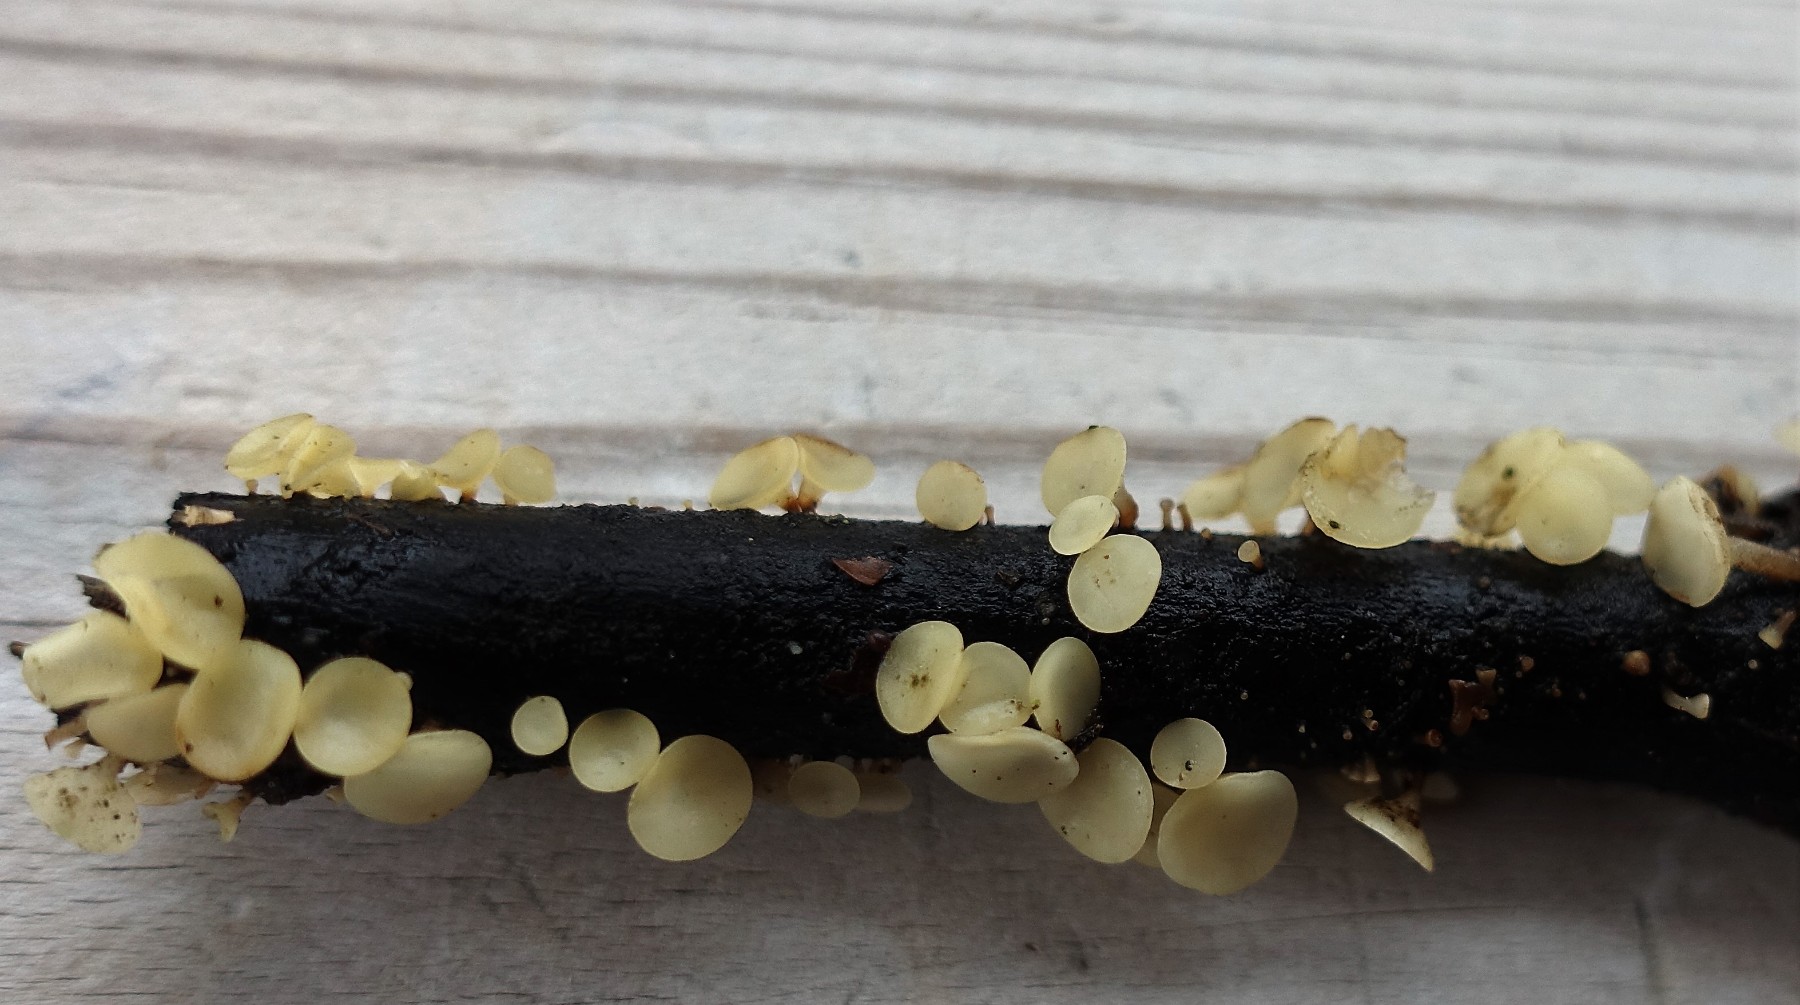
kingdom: Fungi
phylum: Ascomycota
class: Leotiomycetes
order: Helotiales
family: Helotiaceae
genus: Hymenoscyphus
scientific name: Hymenoscyphus serotinus
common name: krumsporet stilkskive
